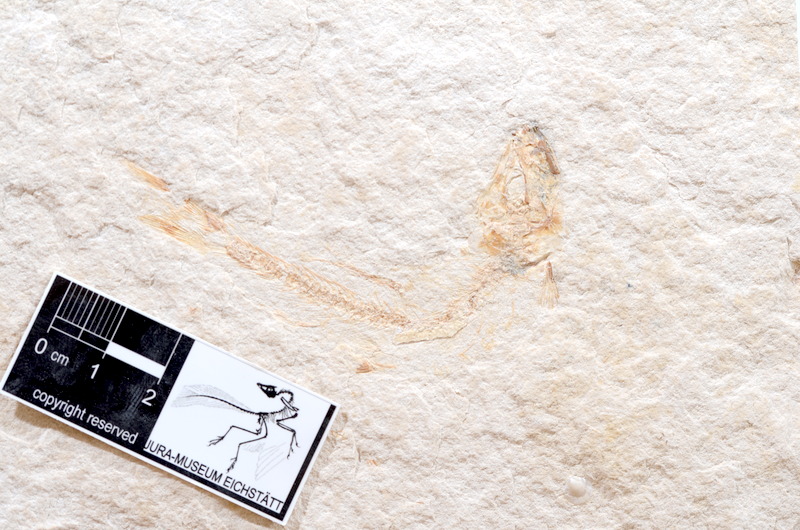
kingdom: Animalia
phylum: Chordata
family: Ascalaboidae
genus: Tharsis
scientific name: Tharsis dubius
